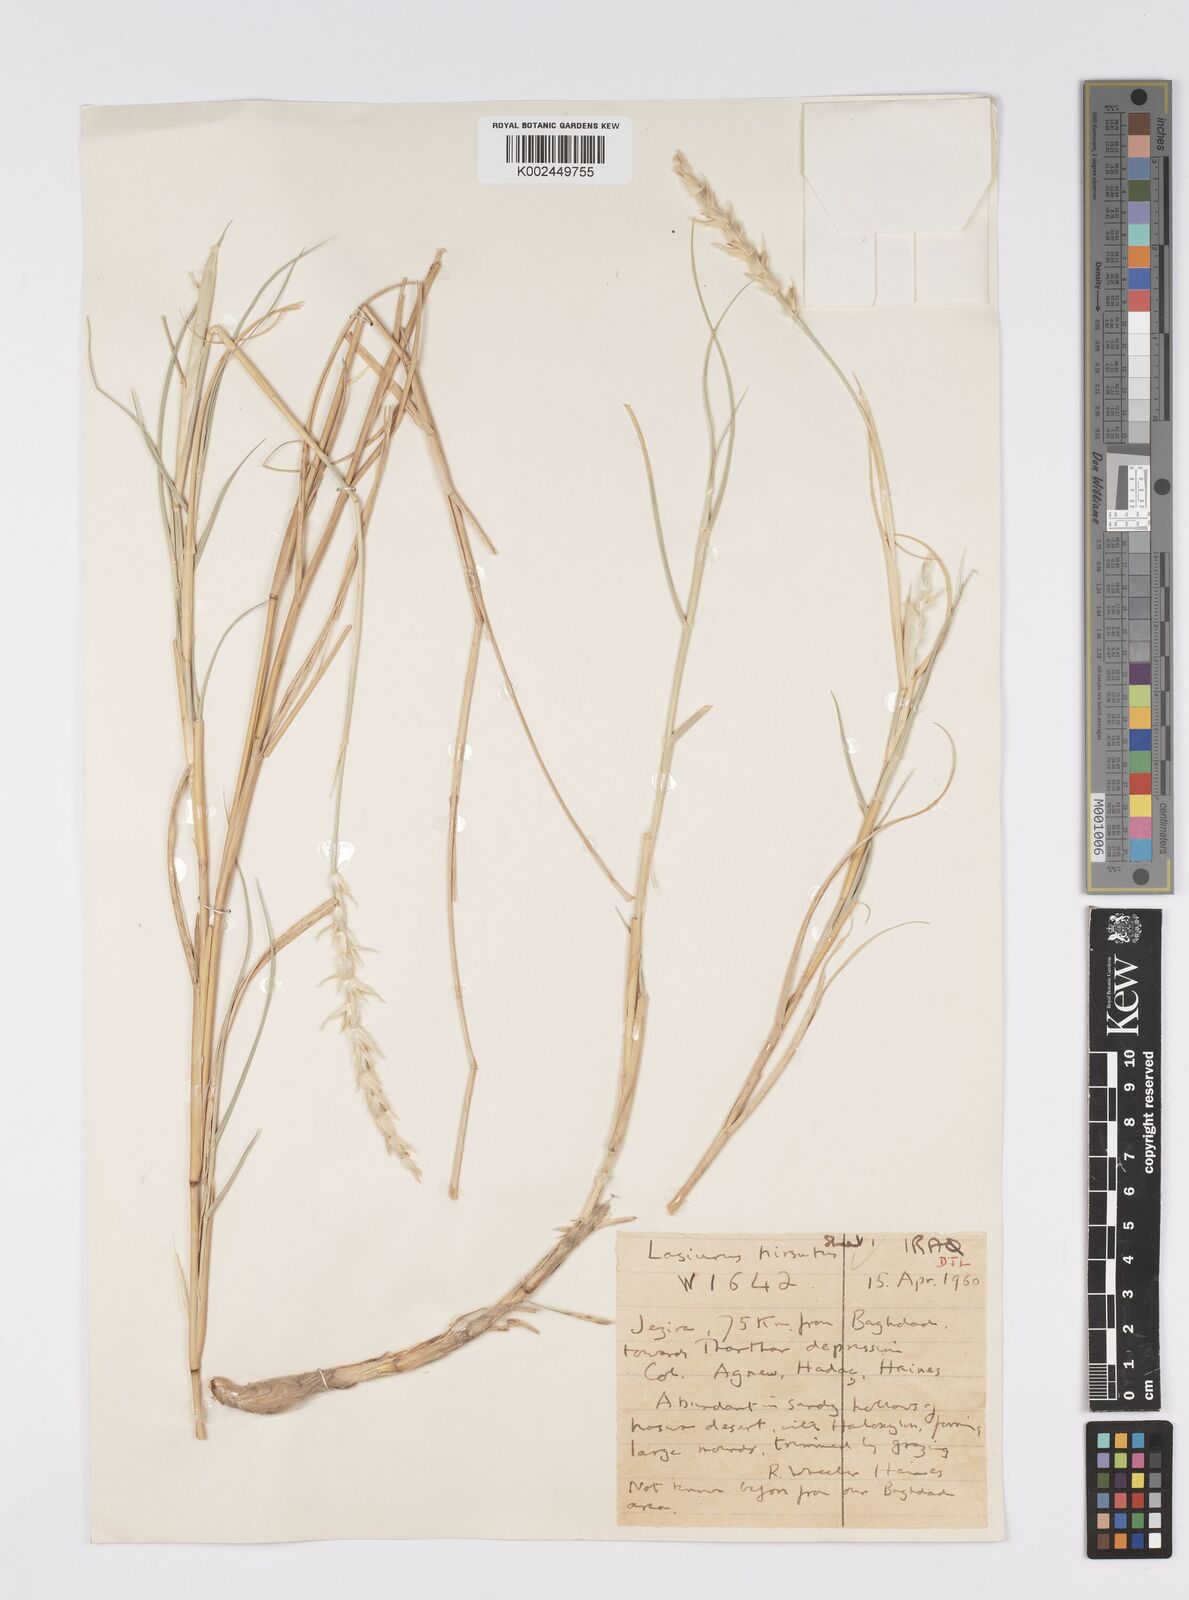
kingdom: Plantae
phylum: Tracheophyta
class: Liliopsida
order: Poales
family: Poaceae
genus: Lasiurus
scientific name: Lasiurus scindicus
